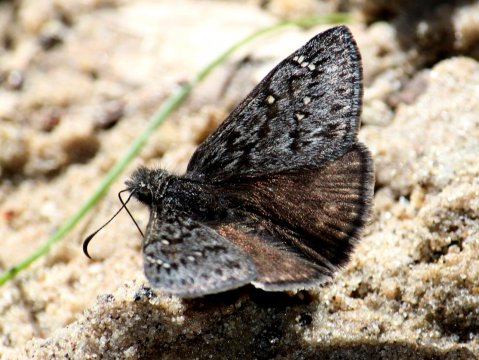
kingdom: Animalia
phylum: Arthropoda
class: Insecta
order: Lepidoptera
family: Hesperiidae
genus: Erynnis
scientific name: Erynnis telemachus
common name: Rocky Mountain Duskywing
